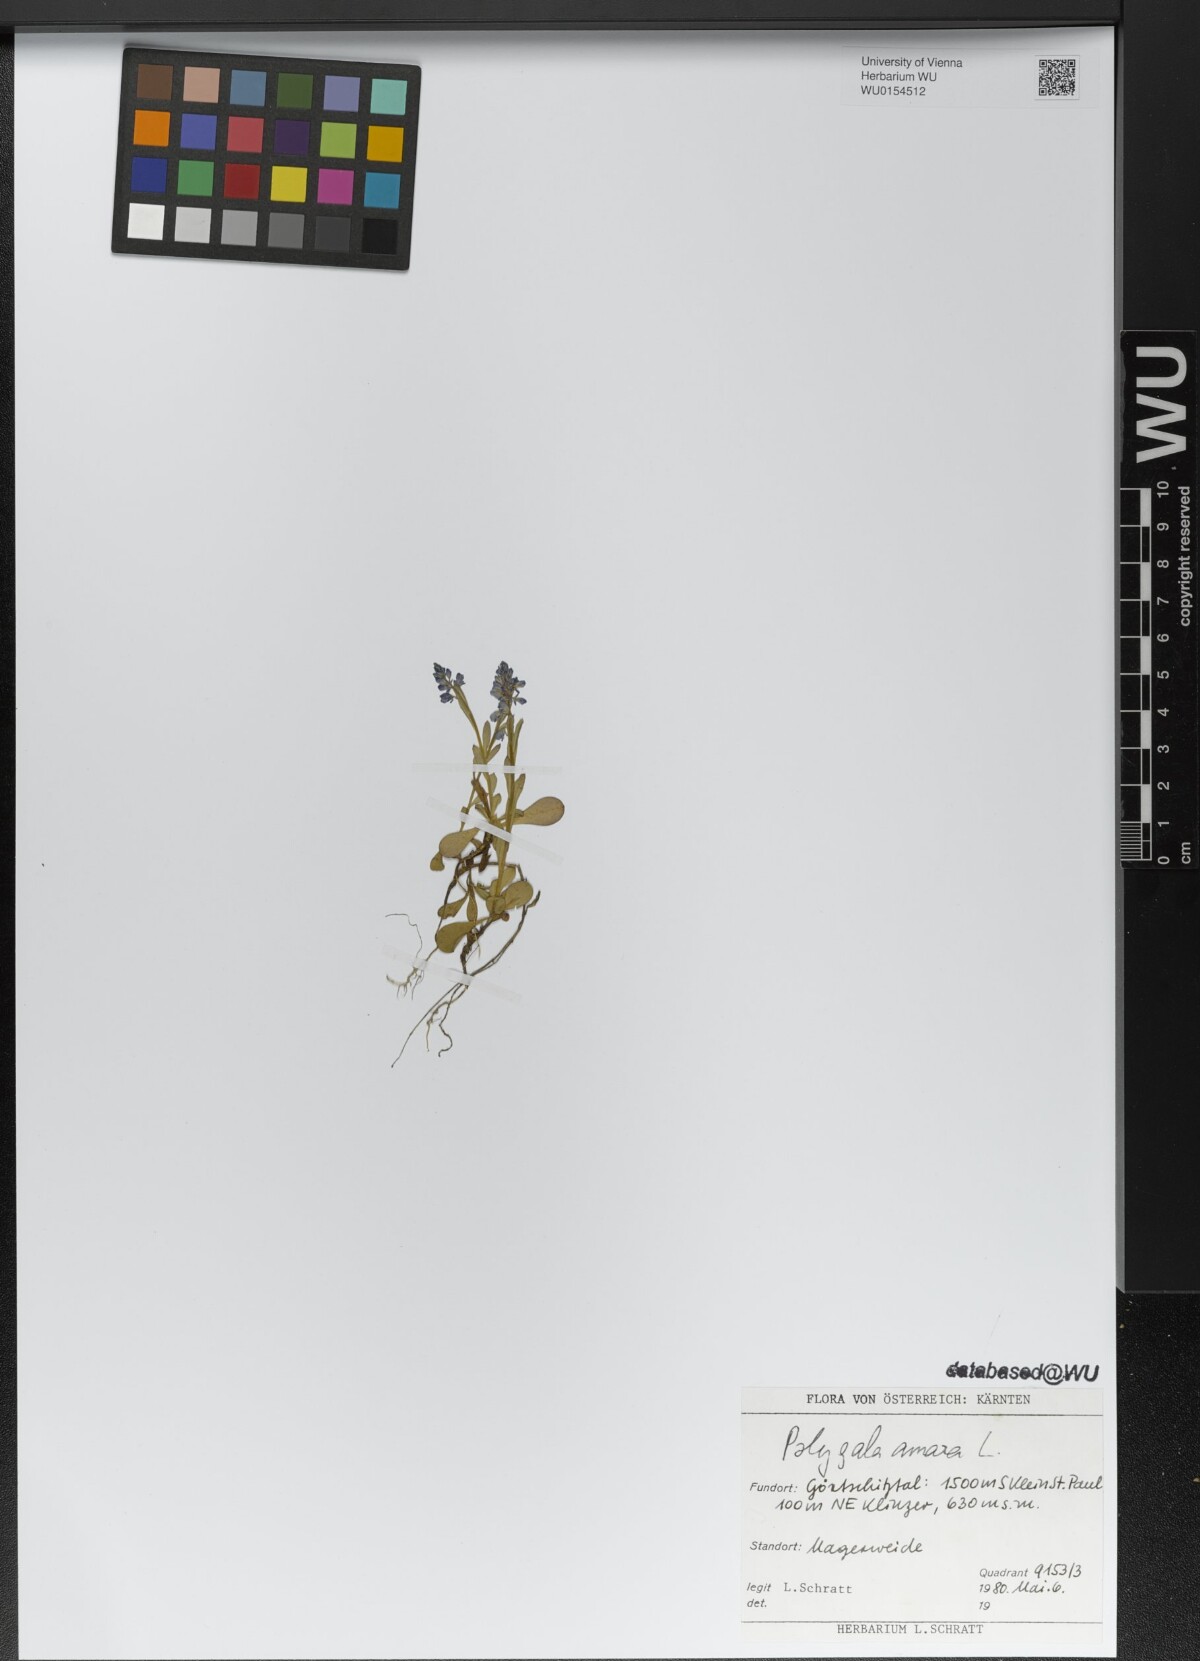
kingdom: Plantae
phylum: Tracheophyta
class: Magnoliopsida
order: Fabales
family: Polygalaceae
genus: Polygala
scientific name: Polygala amara
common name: Milkwort
